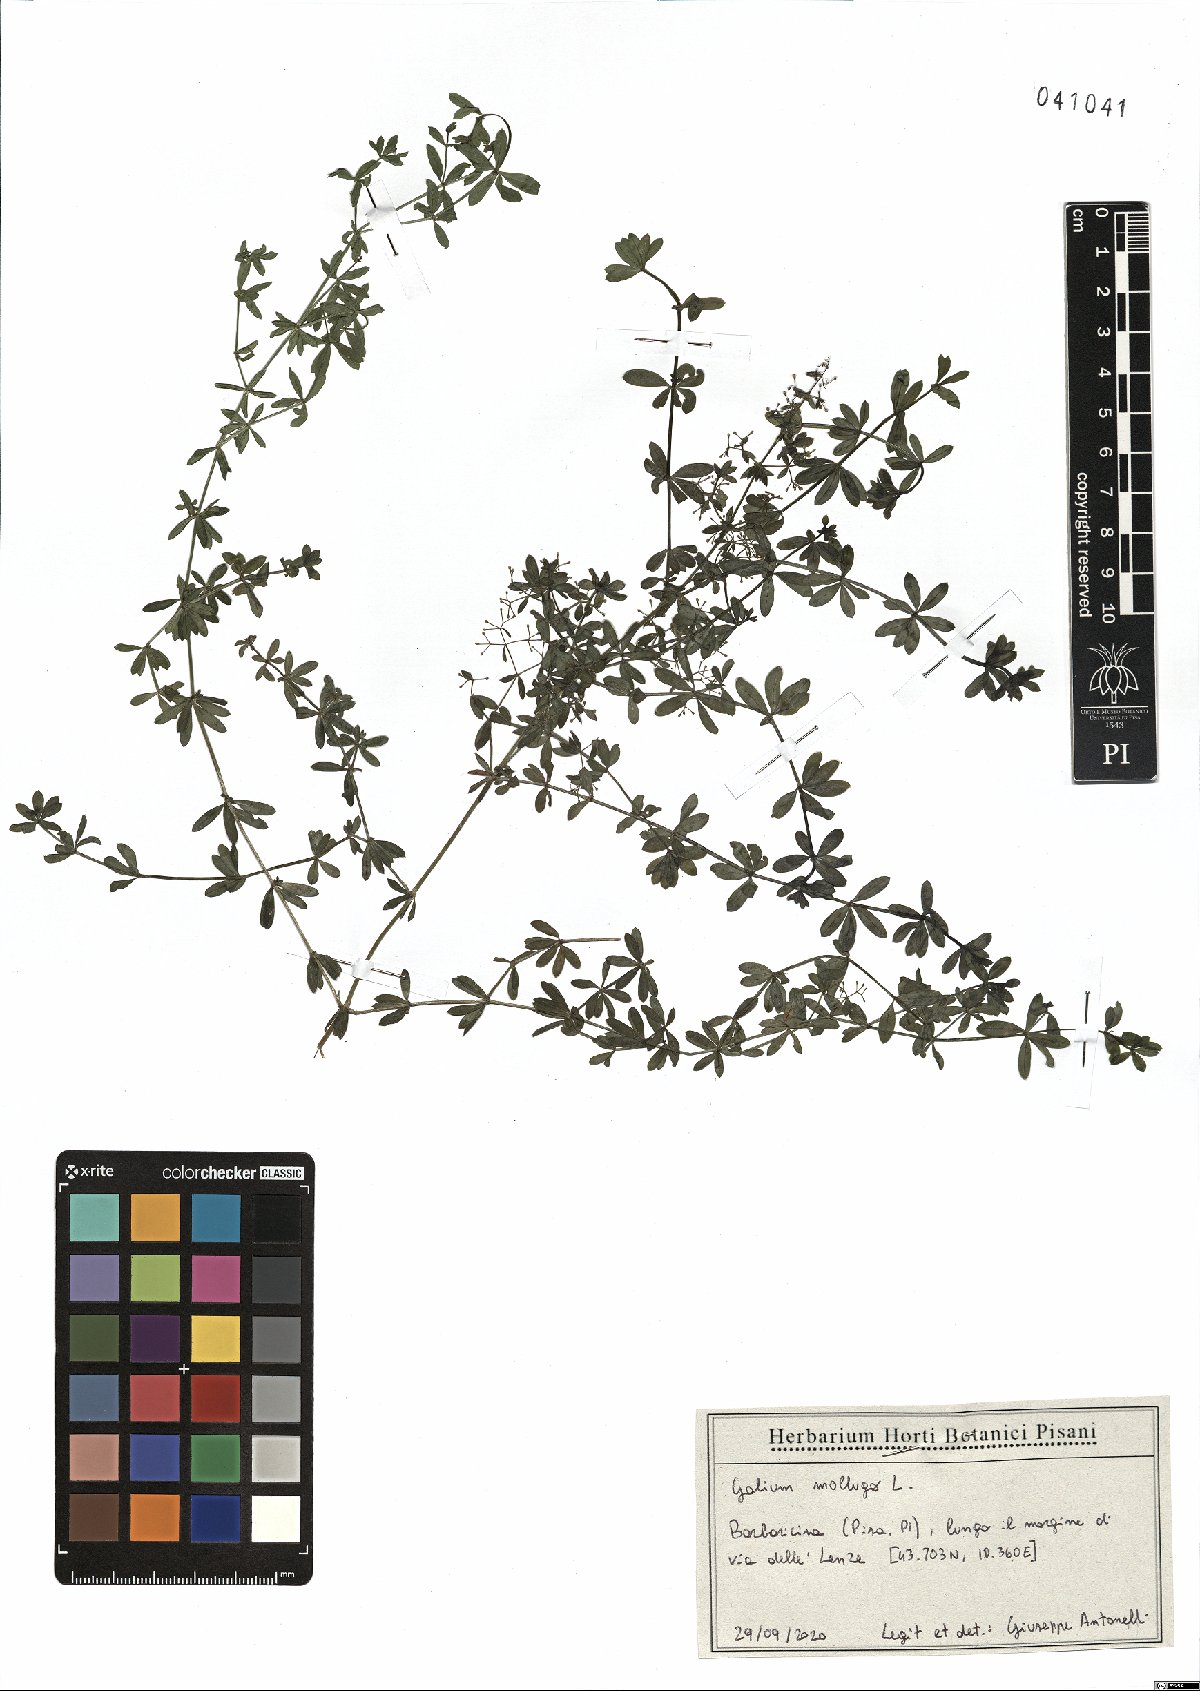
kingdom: Plantae
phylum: Tracheophyta
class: Magnoliopsida
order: Gentianales
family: Rubiaceae
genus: Galium
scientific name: Galium mollugo
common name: Hedge bedstraw
